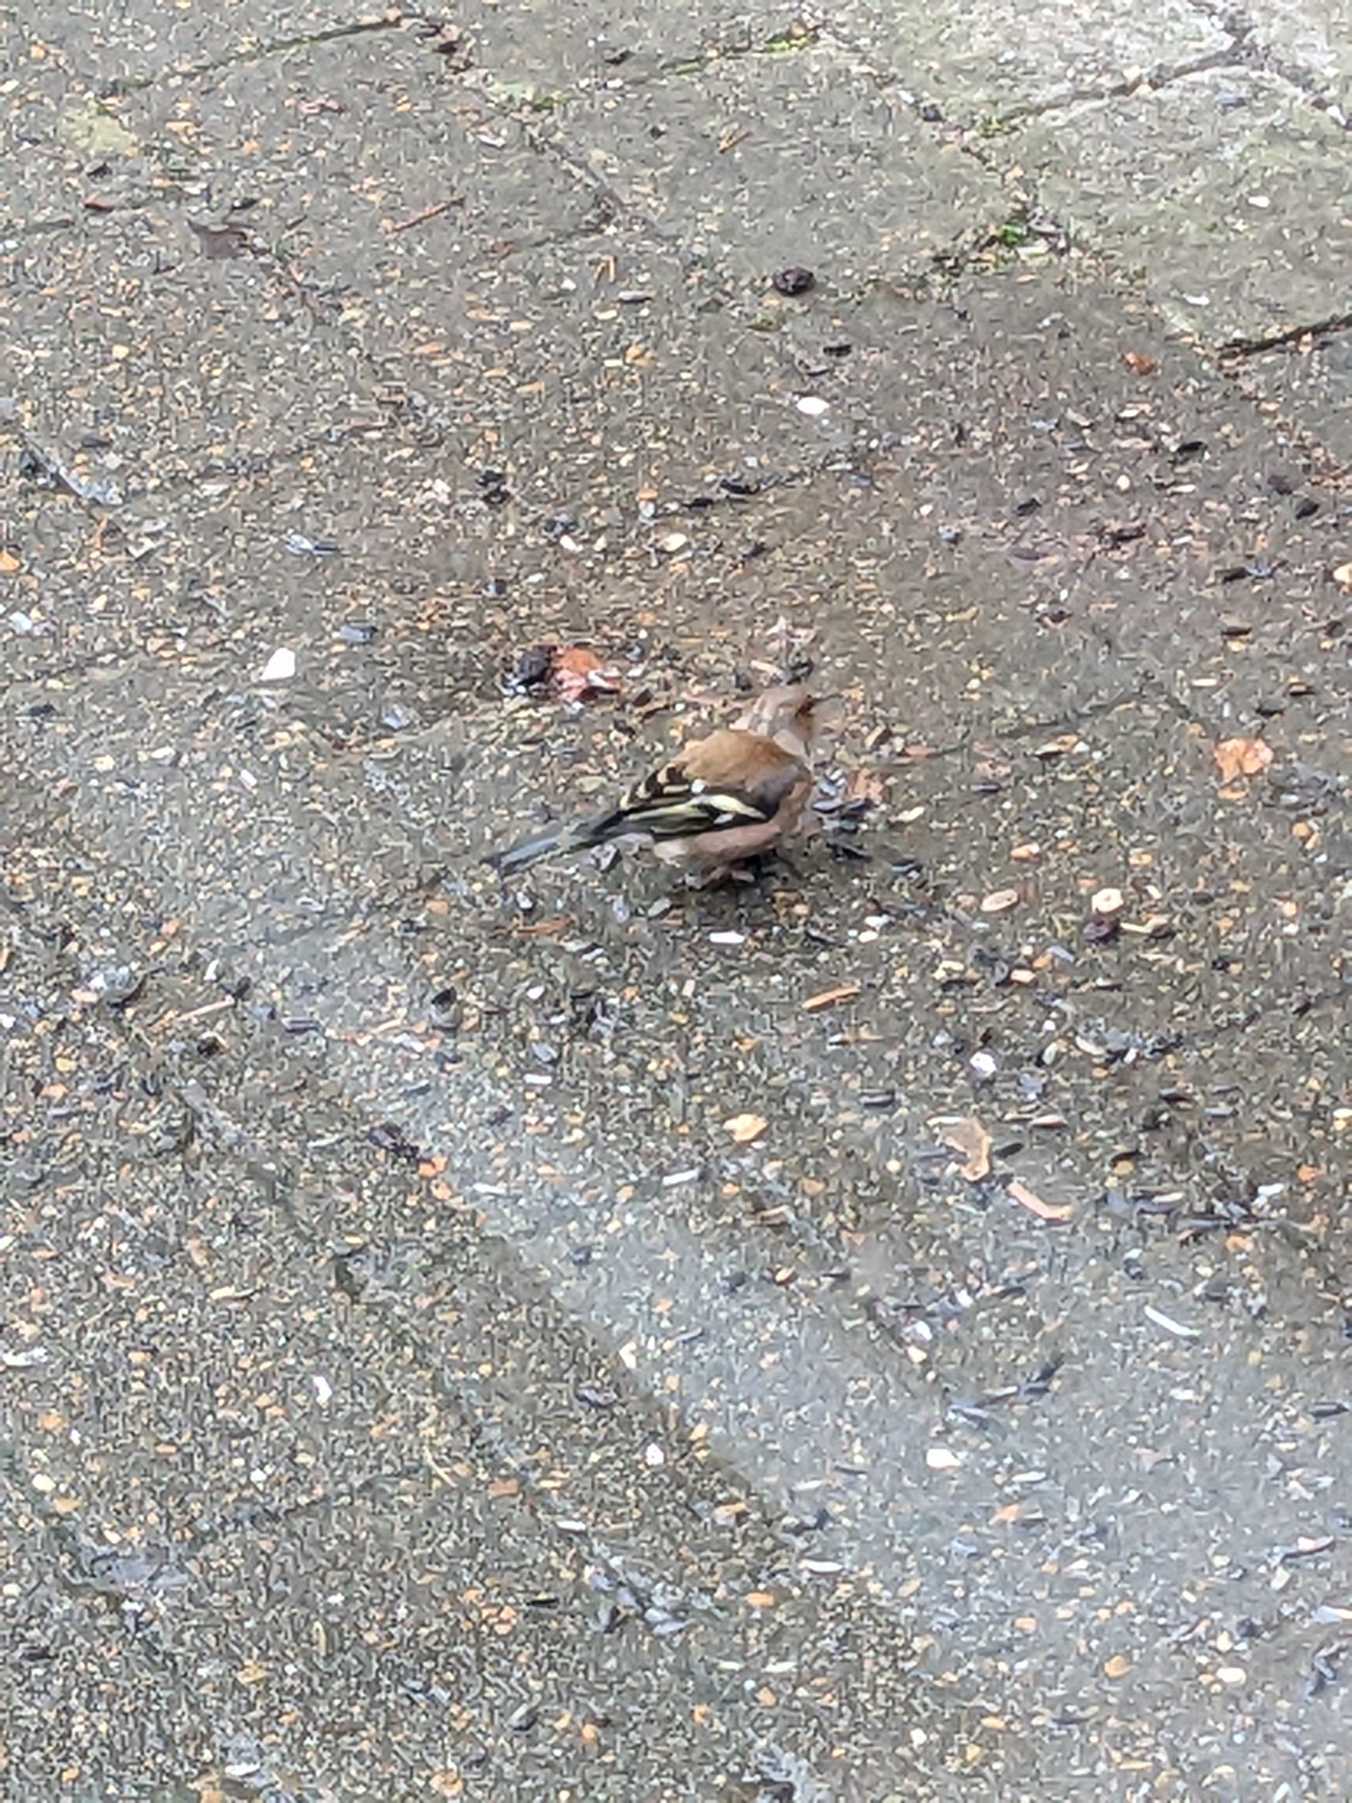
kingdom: Animalia
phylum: Chordata
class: Aves
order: Passeriformes
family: Fringillidae
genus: Fringilla
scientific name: Fringilla coelebs
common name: Bogfinke
